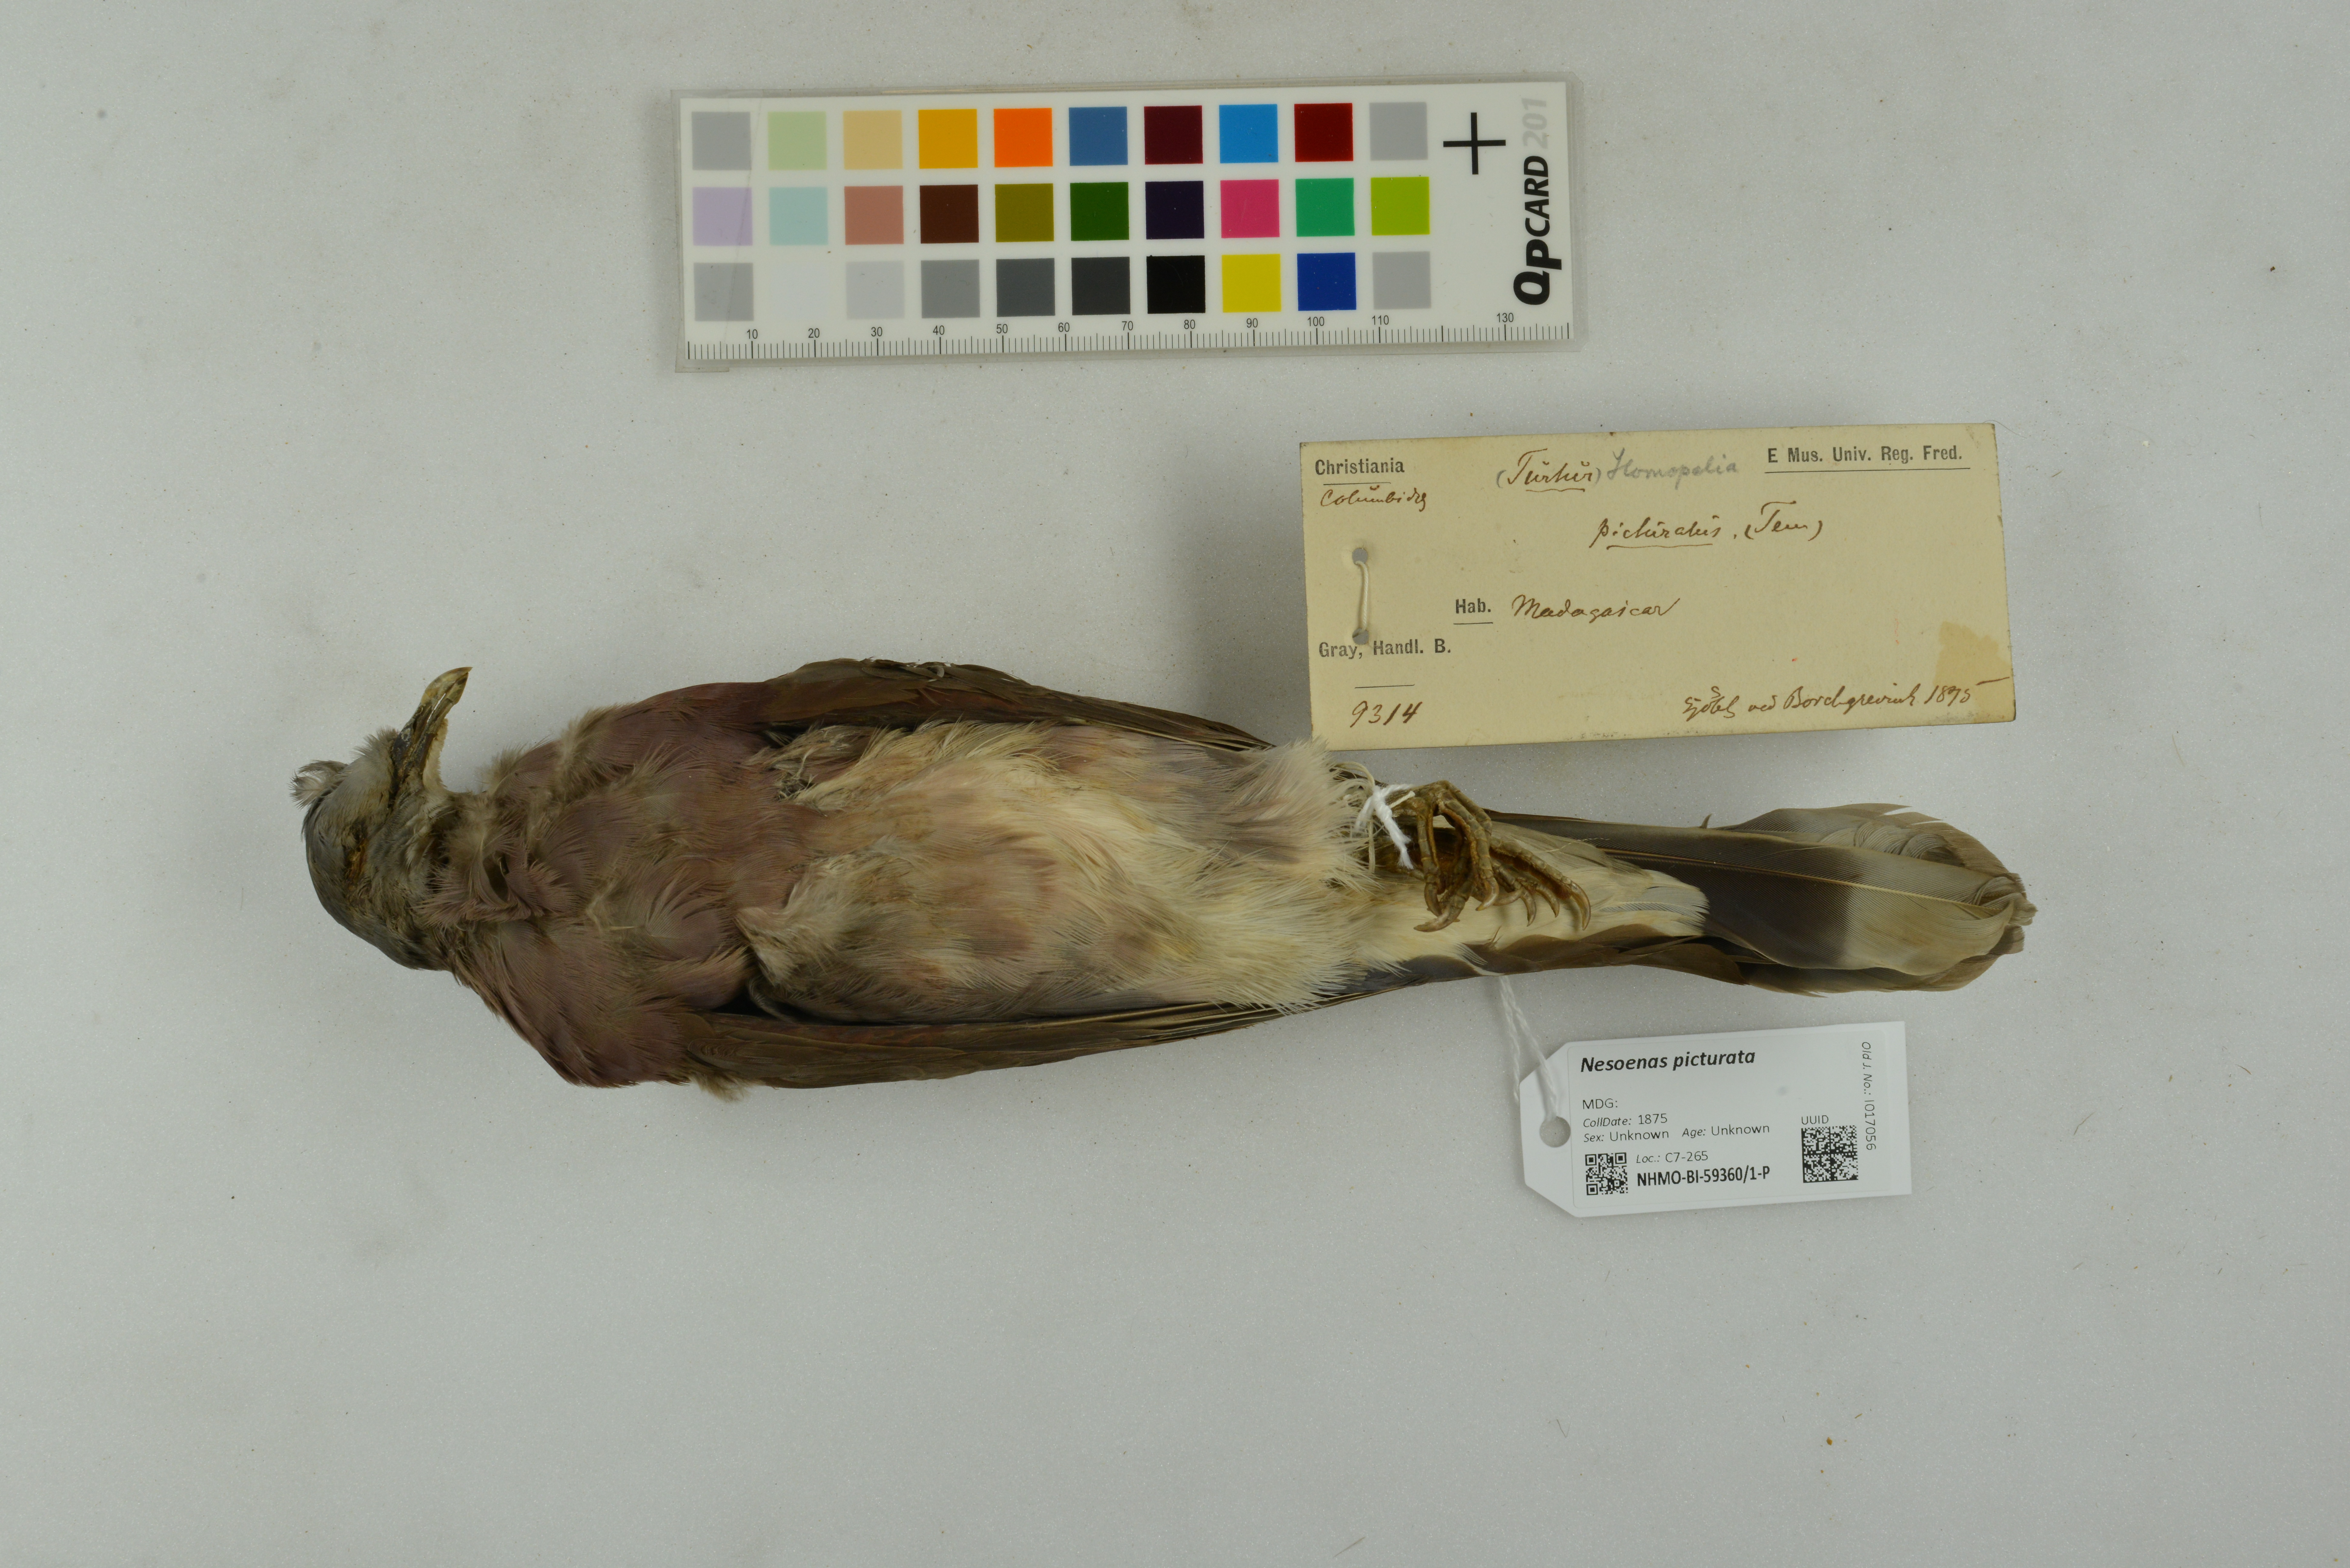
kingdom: Animalia
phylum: Chordata
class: Aves
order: Columbiformes
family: Columbidae
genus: Nesoenas
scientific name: Nesoenas picturatus
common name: Malagasy turtle dove
